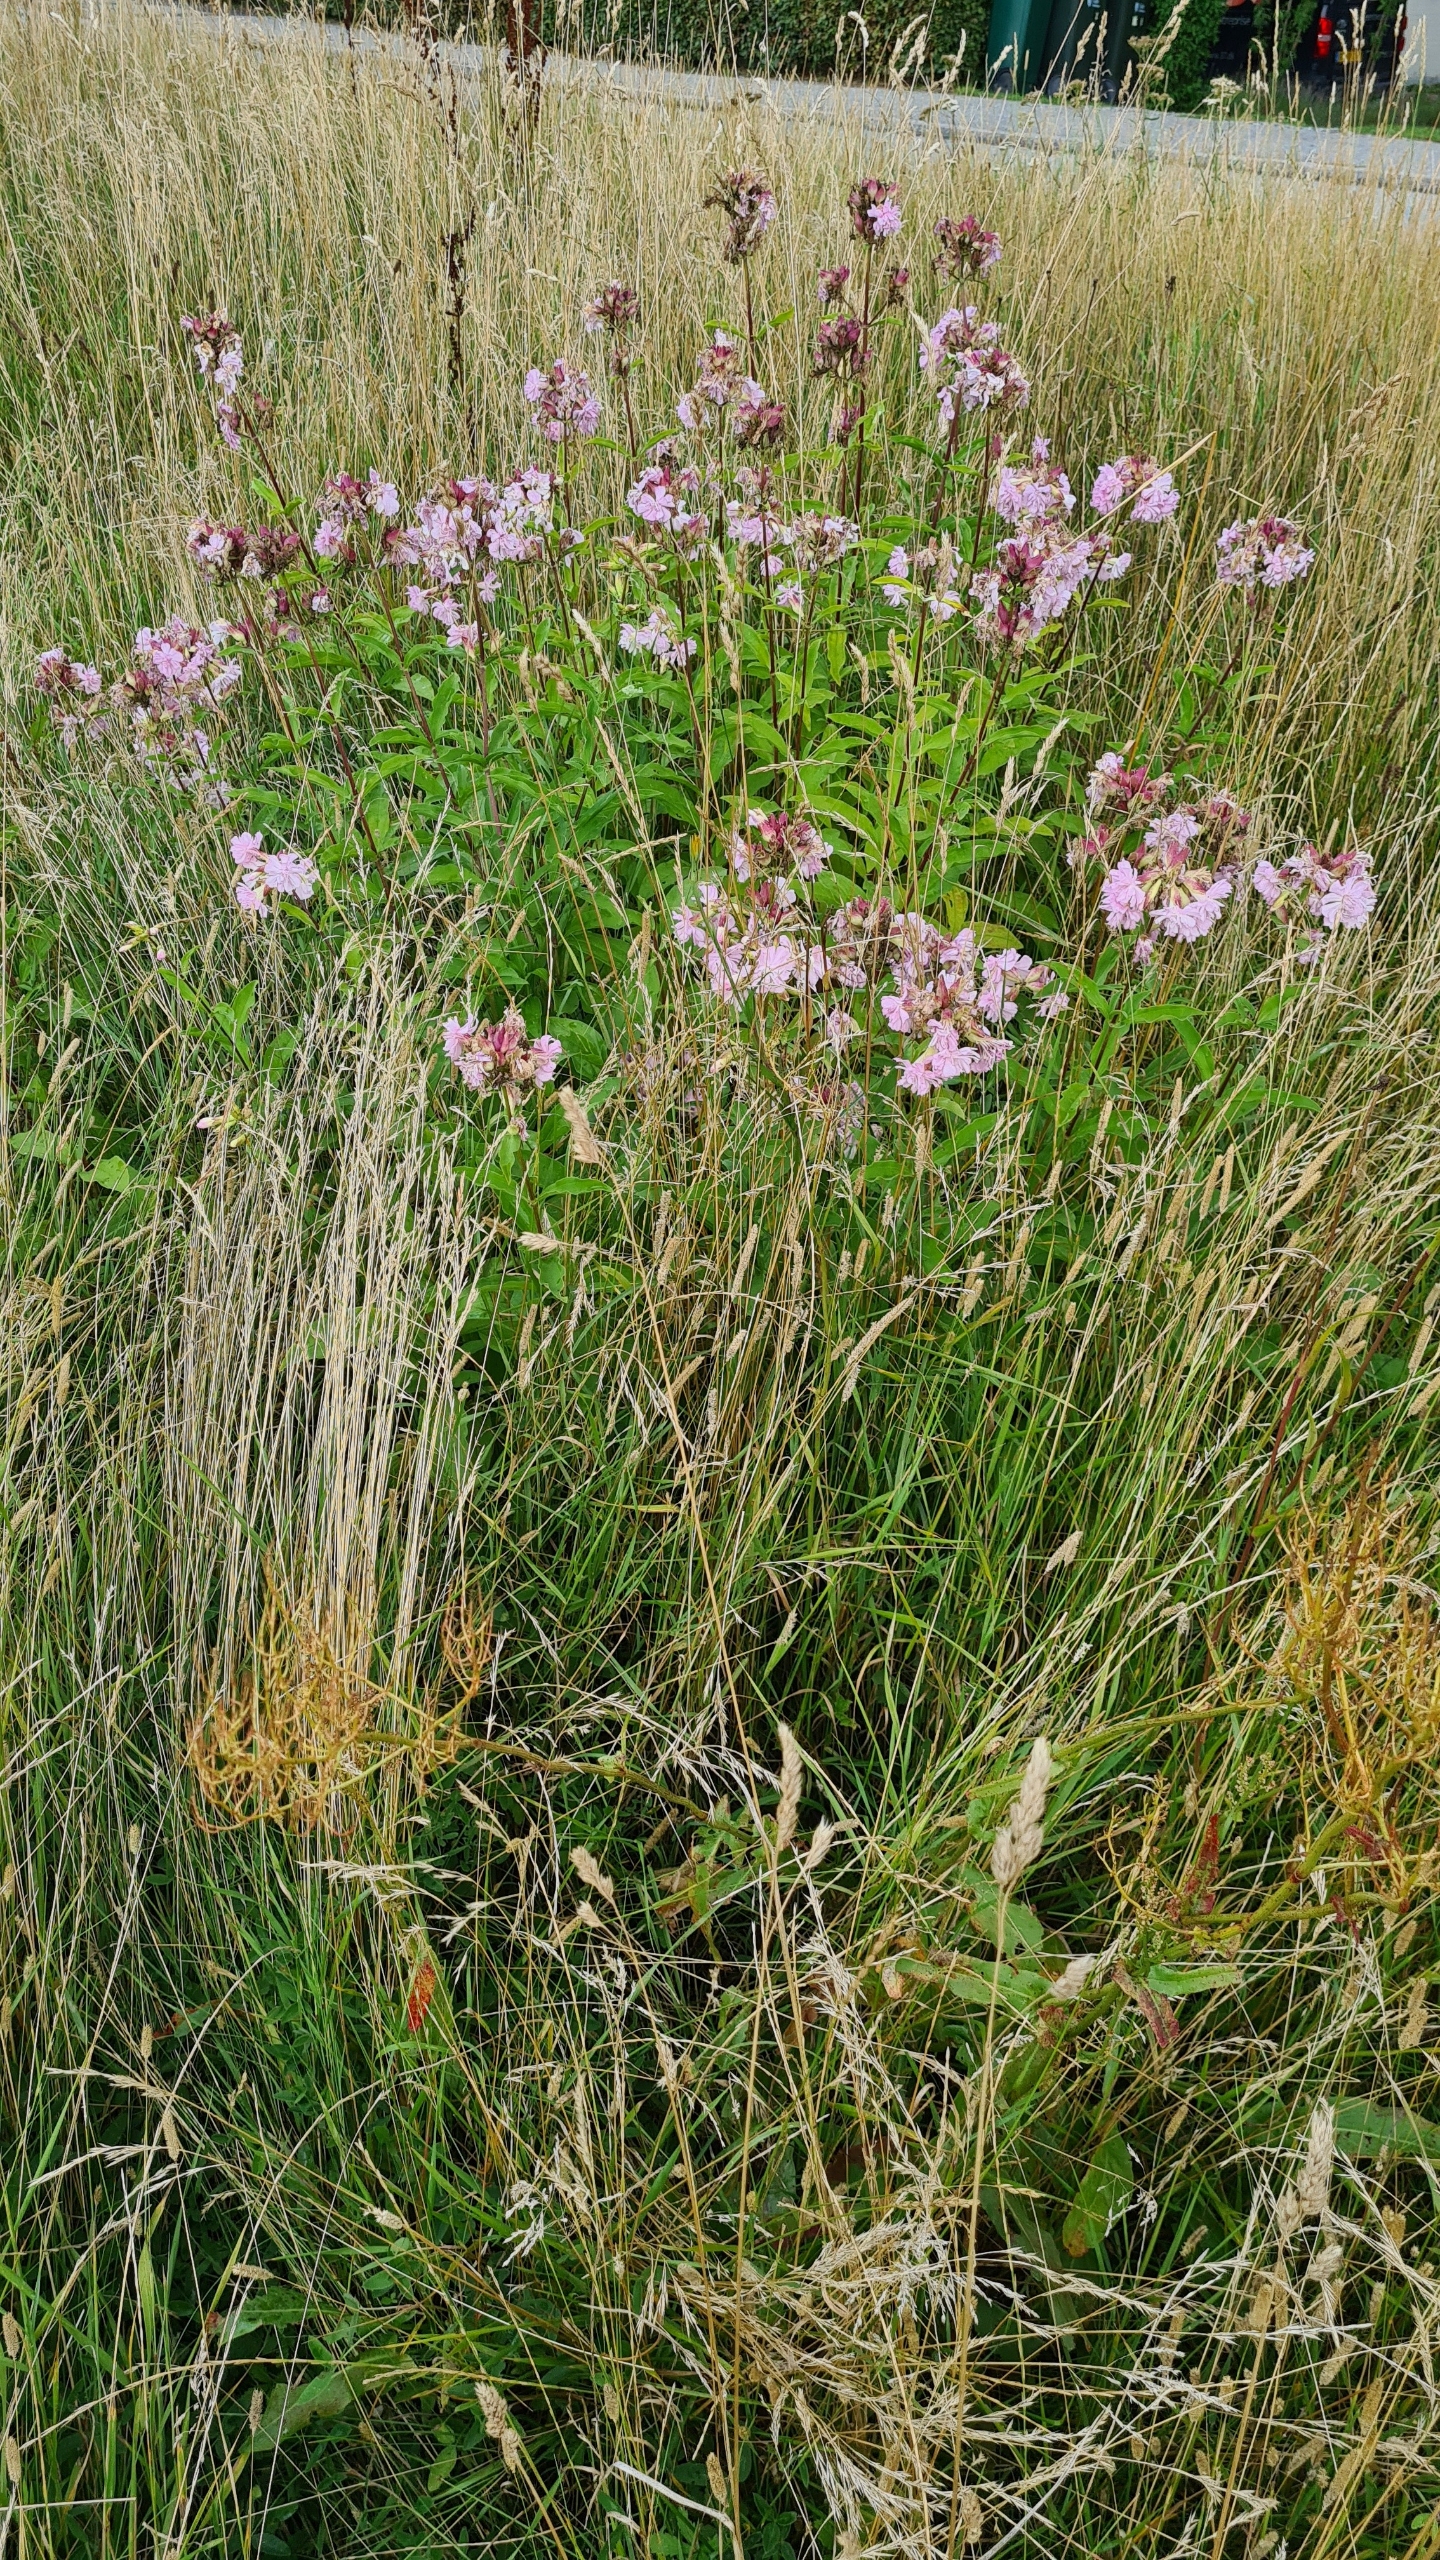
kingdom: Plantae
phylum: Tracheophyta
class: Magnoliopsida
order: Caryophyllales
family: Caryophyllaceae
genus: Saponaria
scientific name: Saponaria officinalis
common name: Sæbeurt
